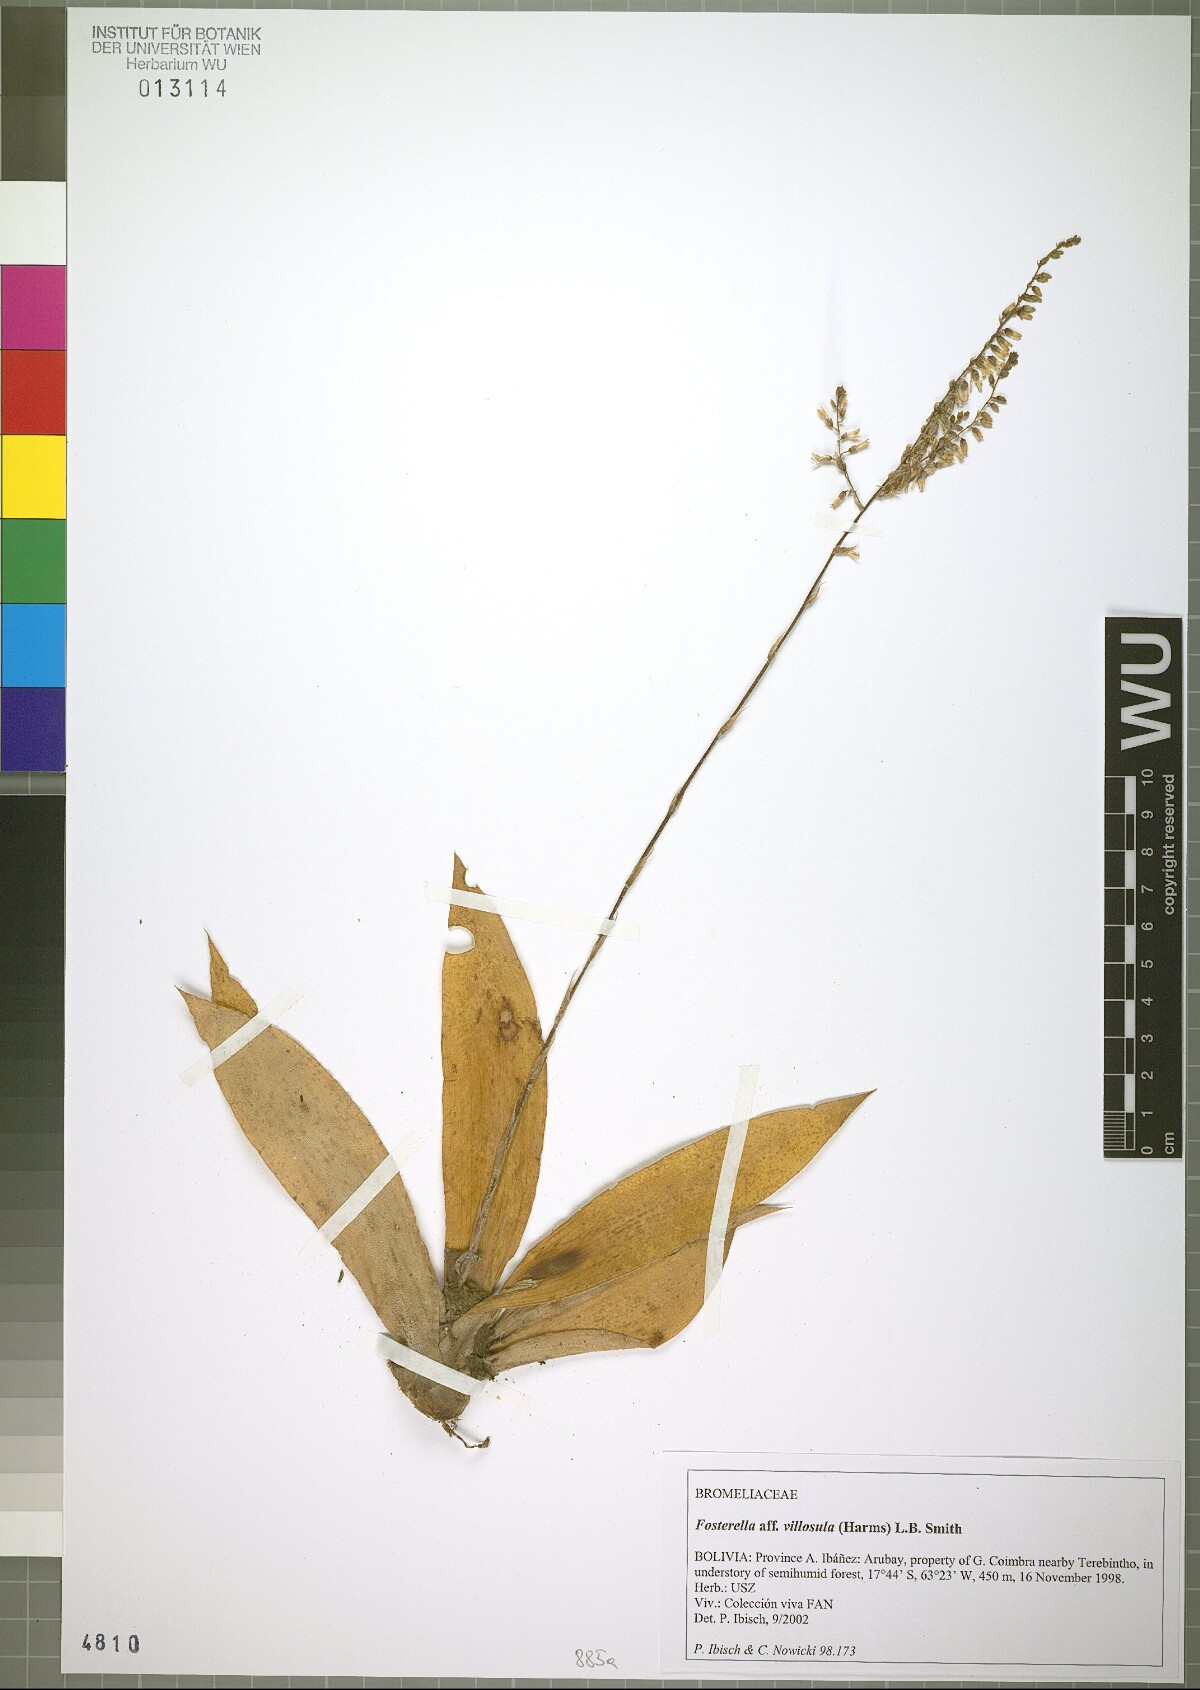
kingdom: Plantae
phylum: Tracheophyta
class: Liliopsida
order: Poales
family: Bromeliaceae
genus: Fosterella
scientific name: Fosterella christophii
